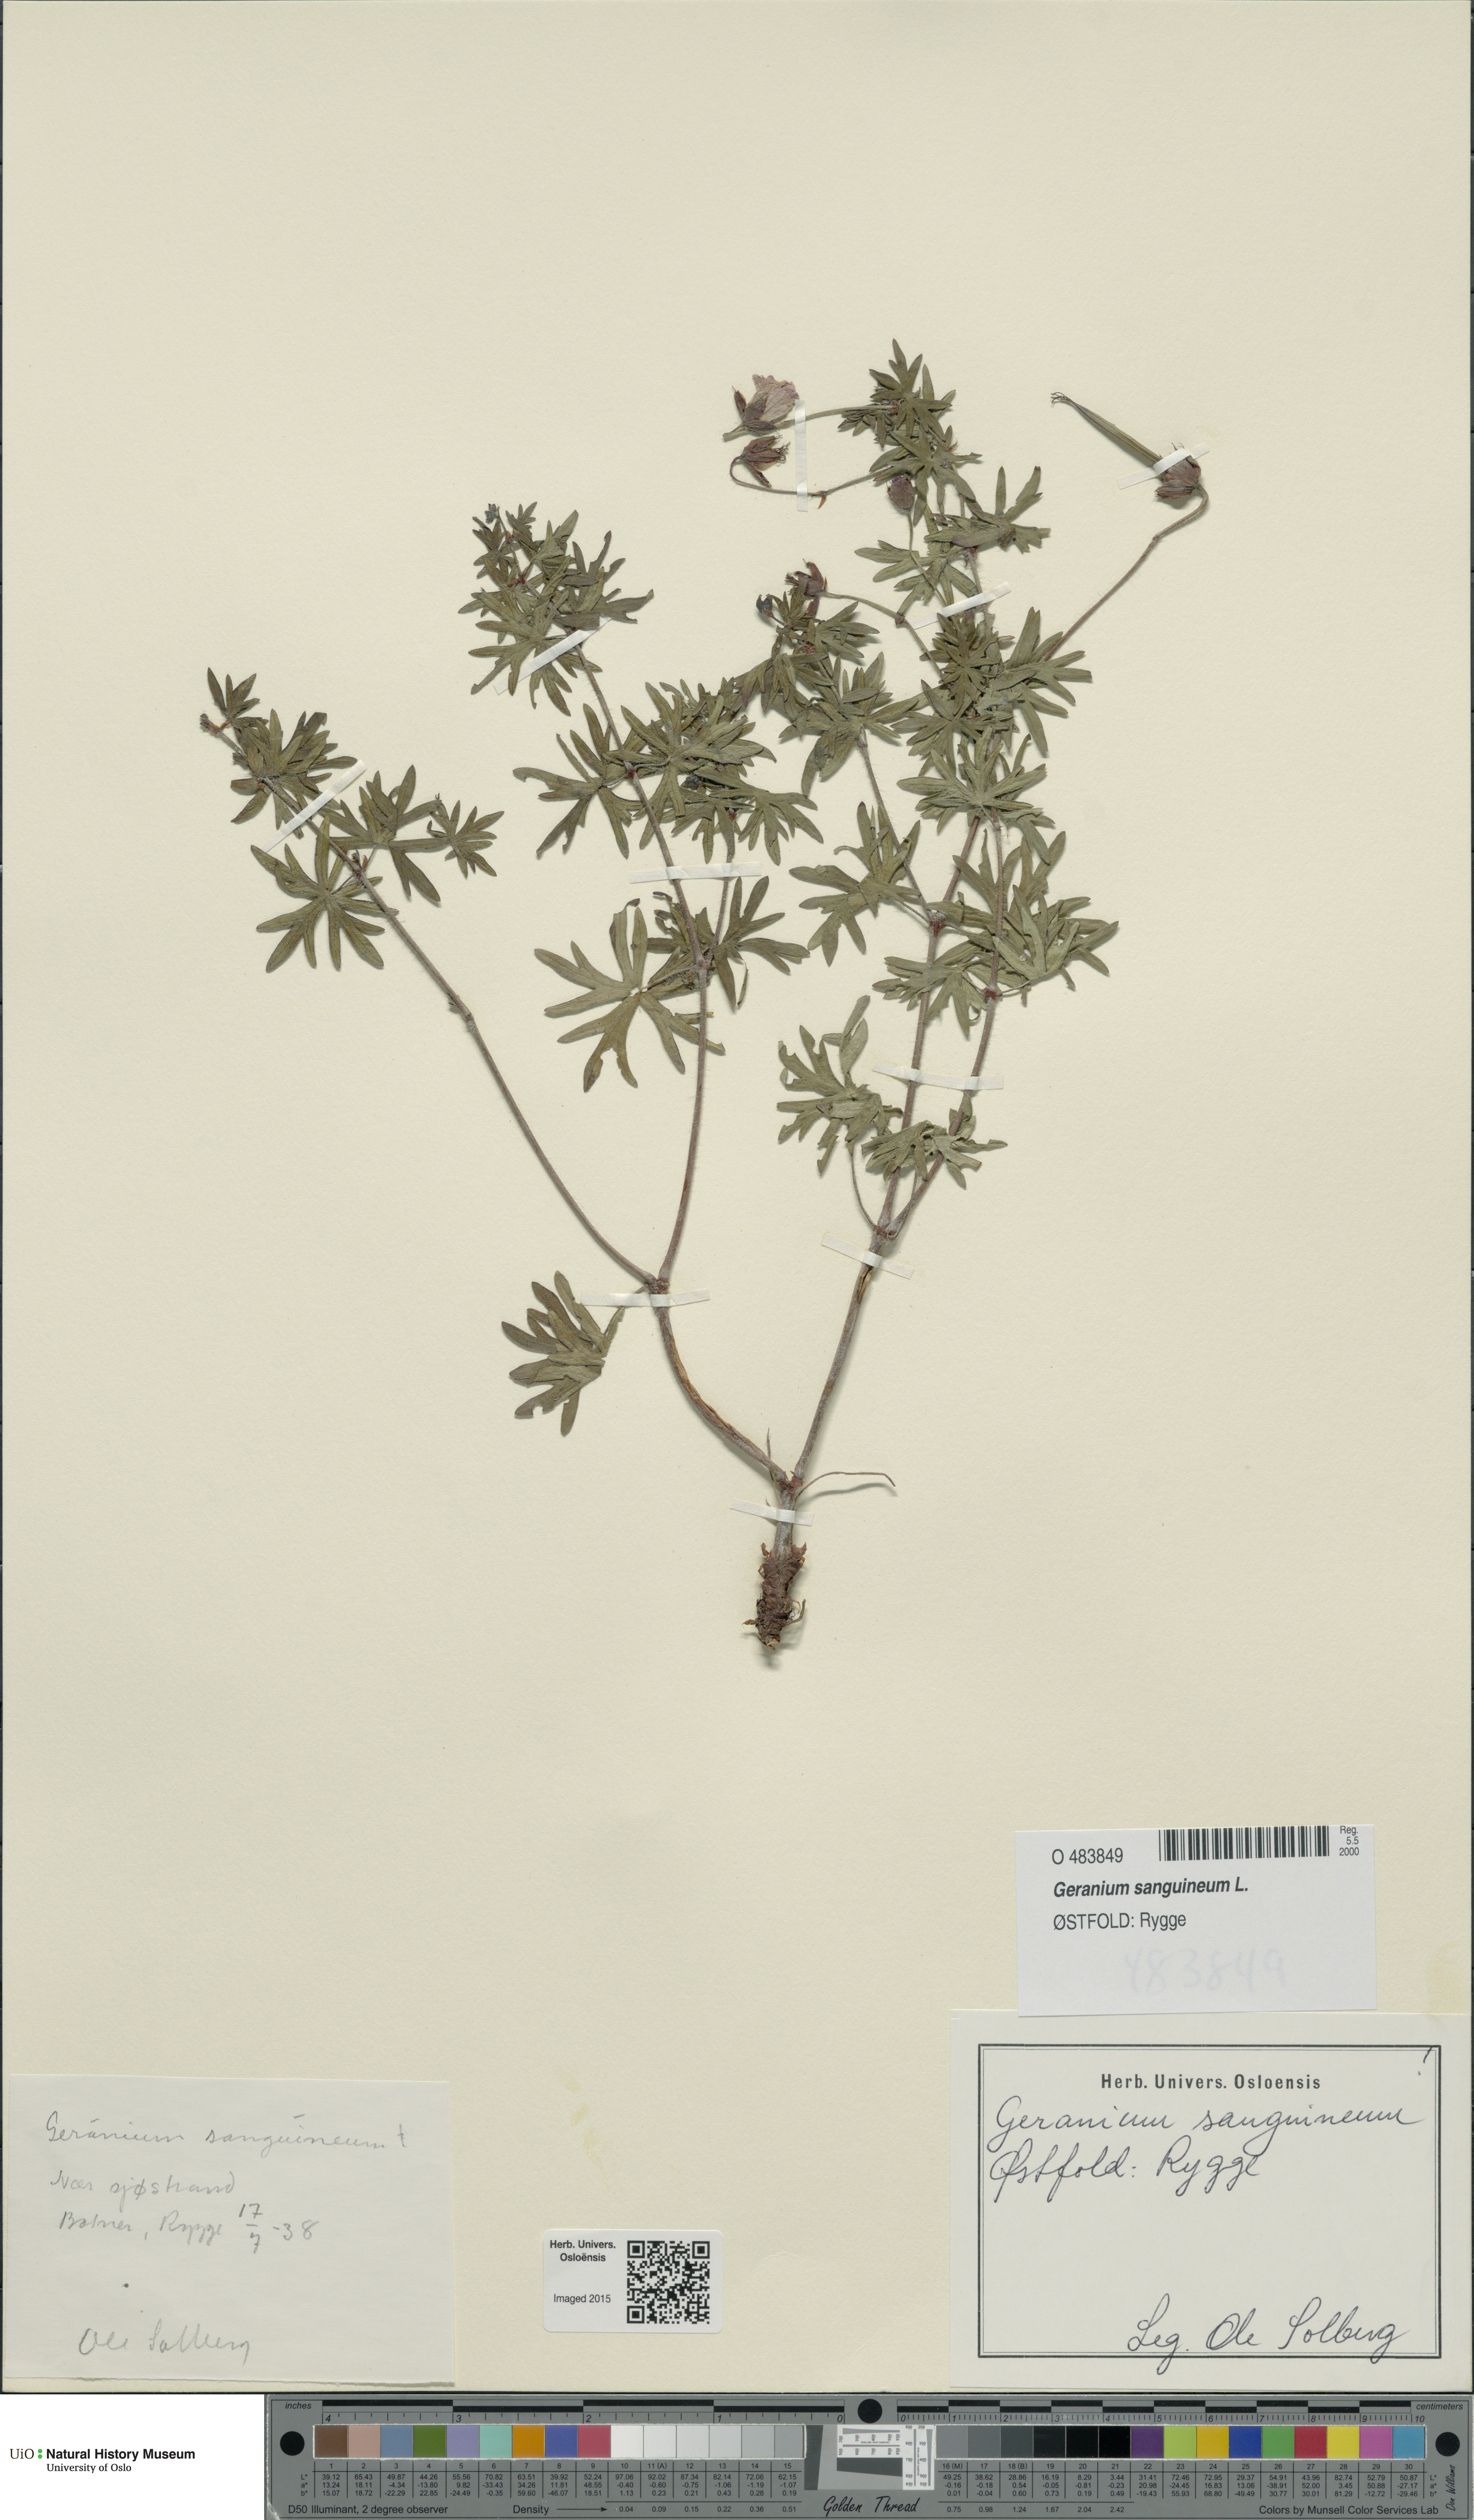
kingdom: Plantae
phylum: Tracheophyta
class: Magnoliopsida
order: Geraniales
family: Geraniaceae
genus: Geranium
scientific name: Geranium sanguineum
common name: Bloody crane's-bill
